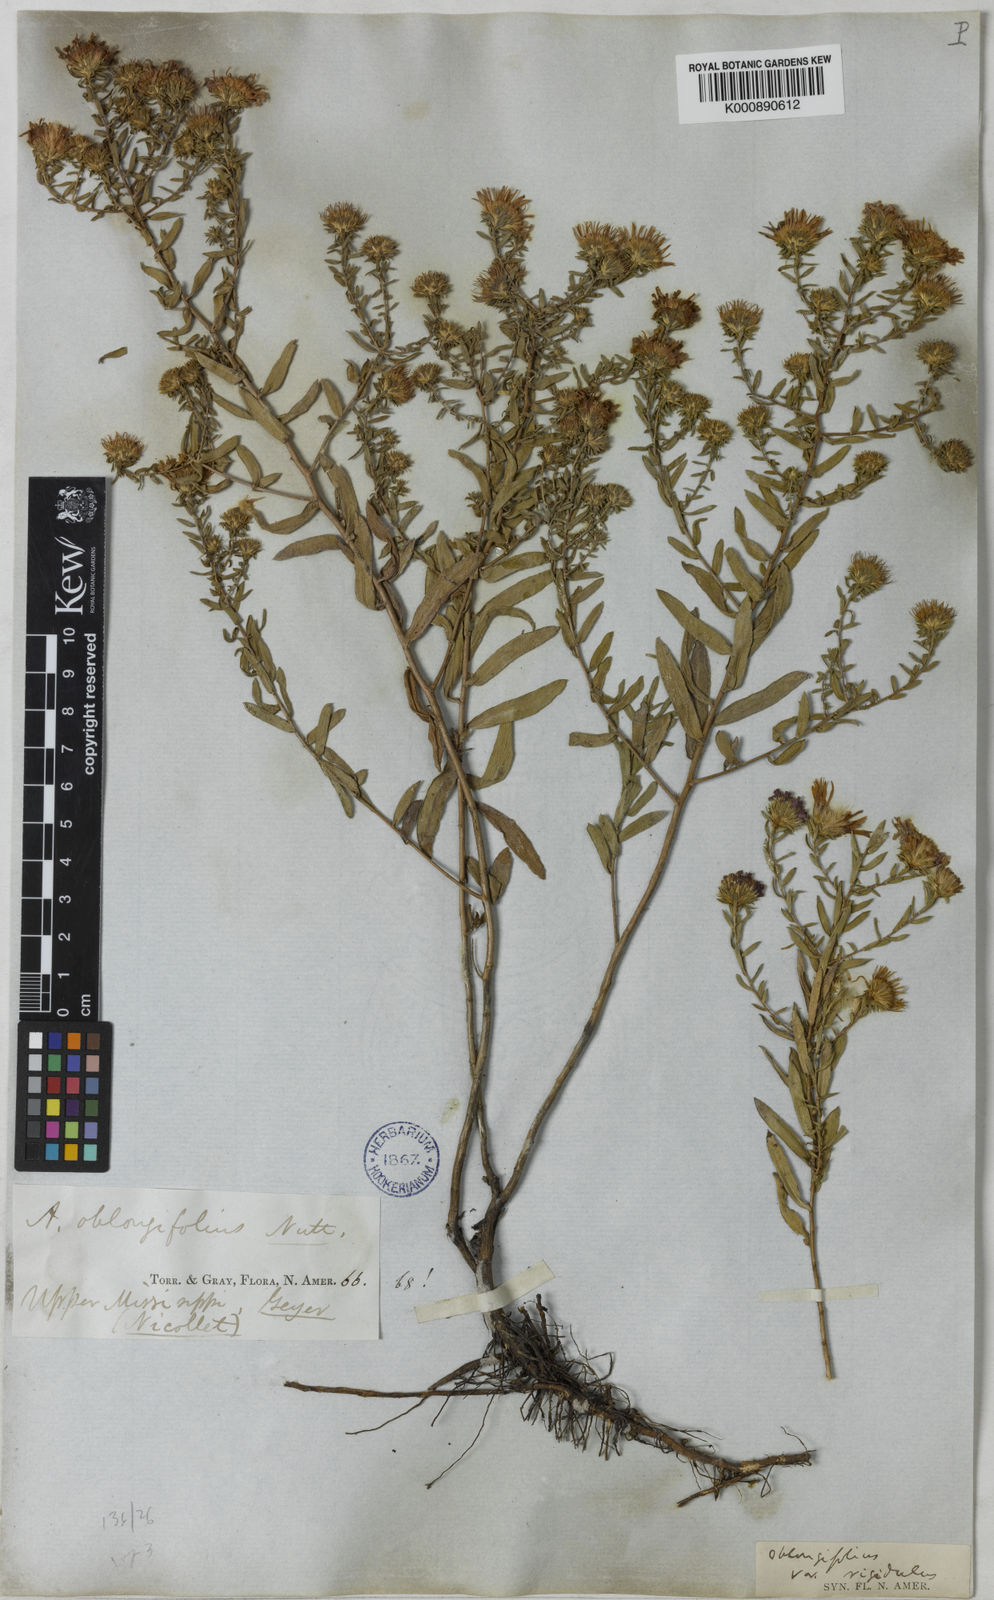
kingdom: Plantae
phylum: Tracheophyta
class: Magnoliopsida
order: Asterales
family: Asteraceae
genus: Symphyotrichum
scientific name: Symphyotrichum oblongifolium
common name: Aromatic aster
